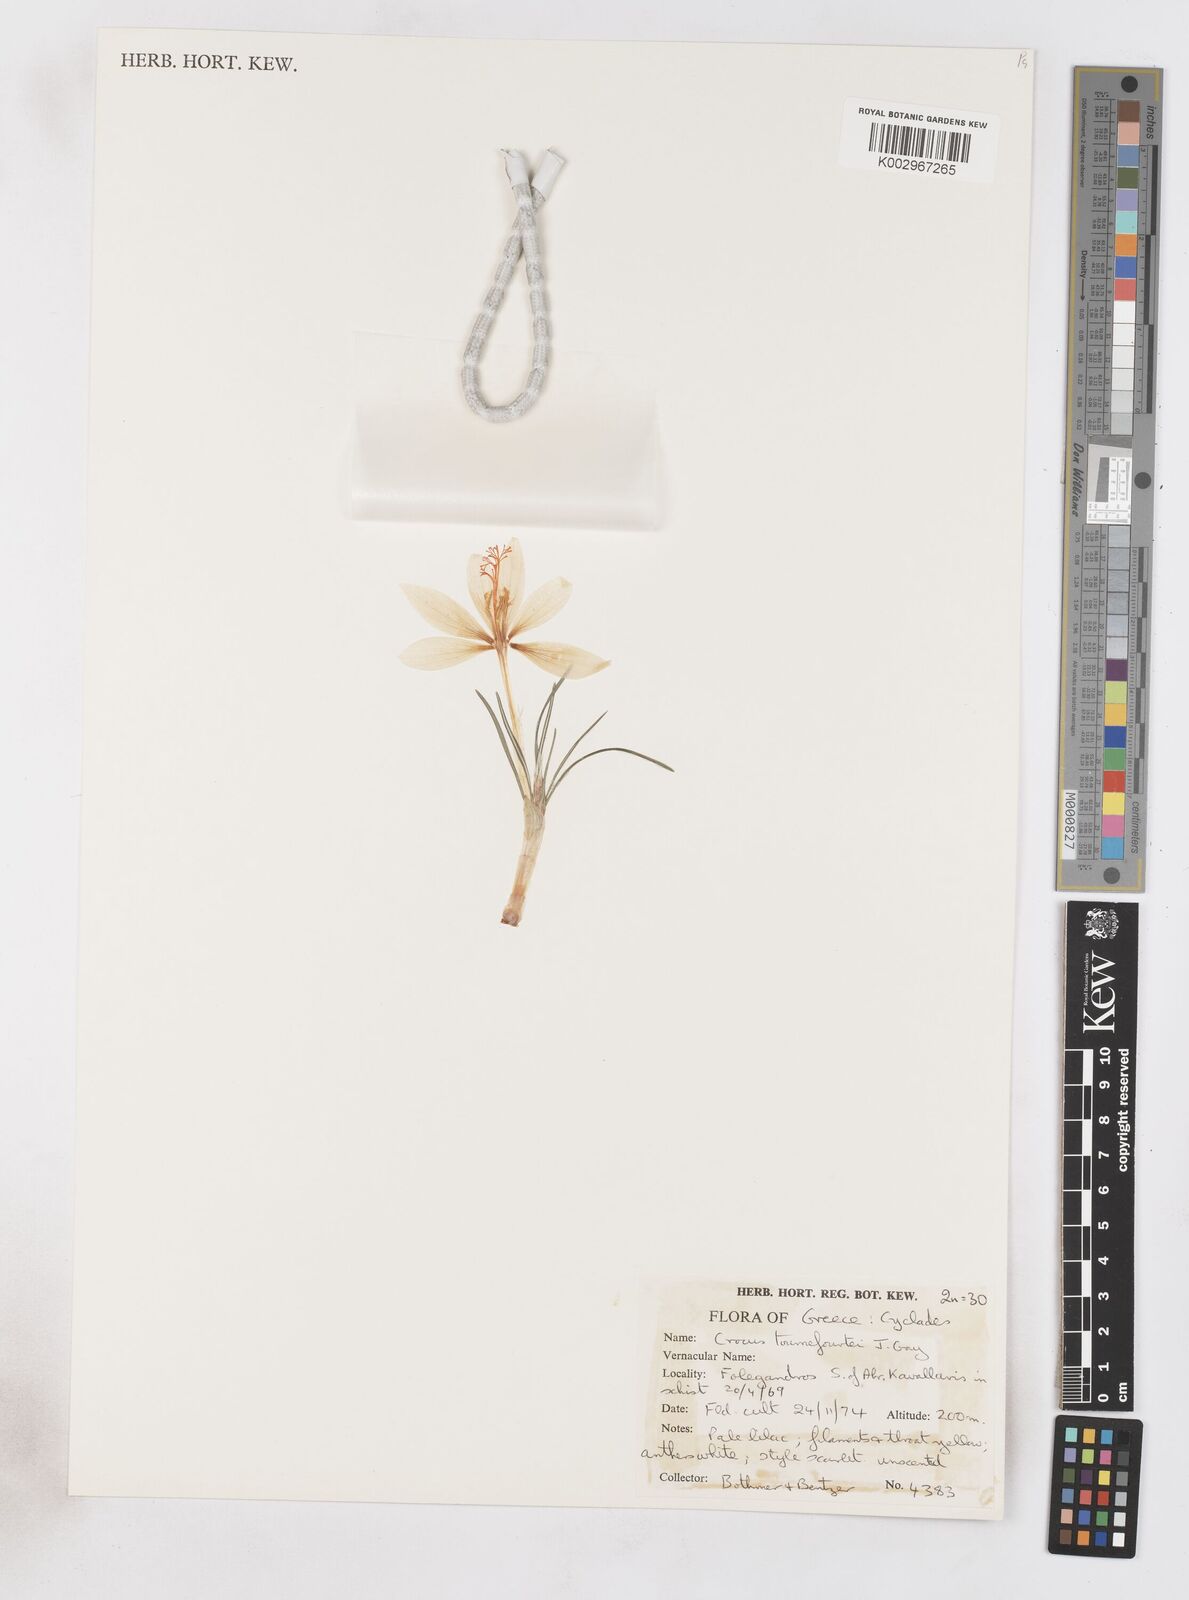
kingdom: Plantae
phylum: Tracheophyta
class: Liliopsida
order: Asparagales
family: Iridaceae
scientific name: Iridaceae
